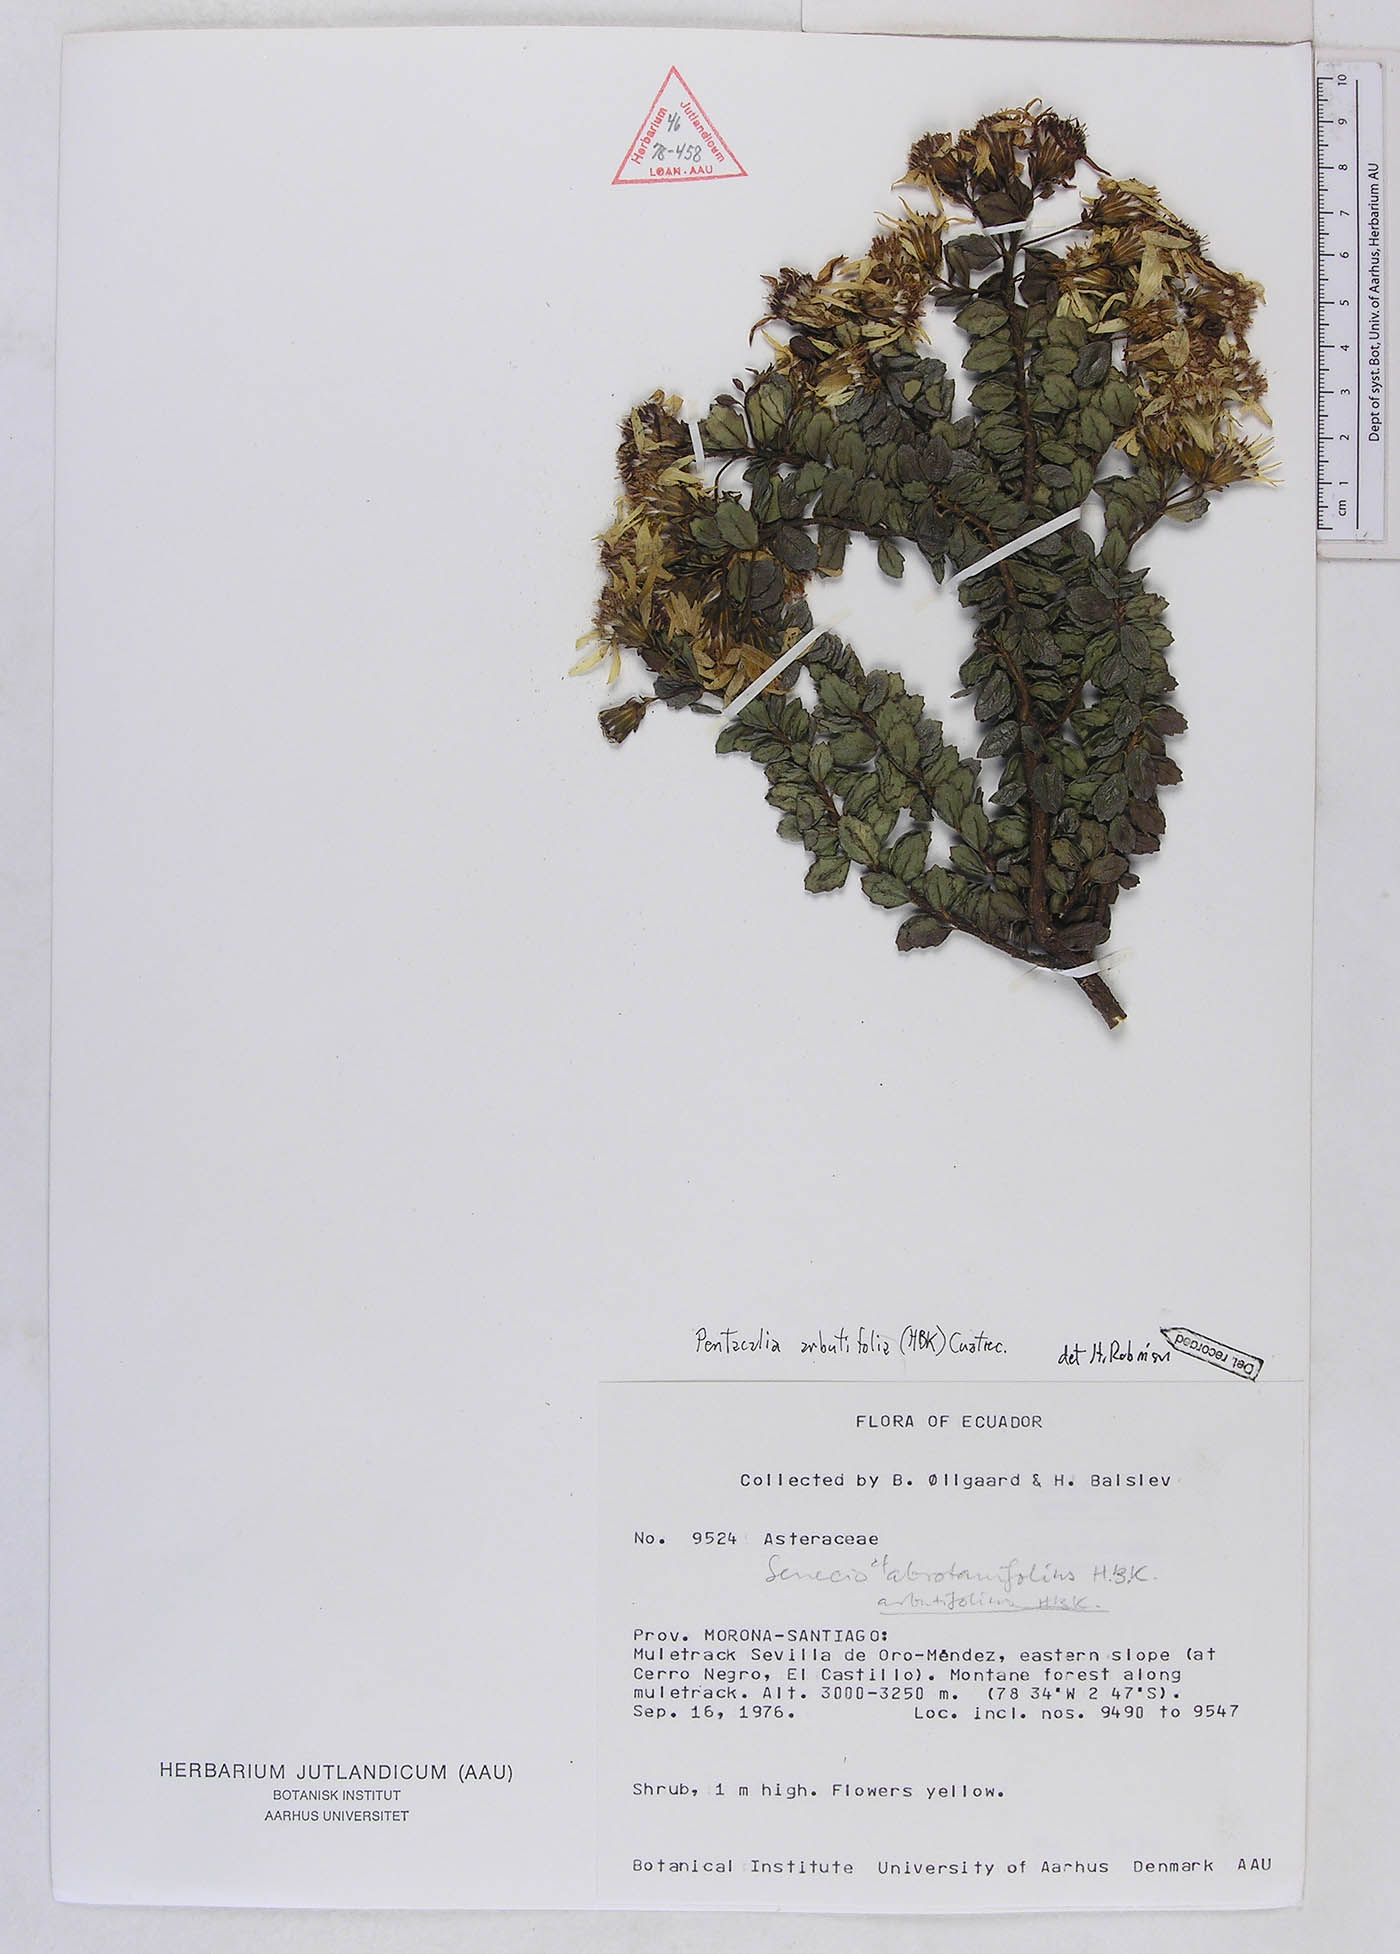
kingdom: Plantae
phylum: Tracheophyta
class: Magnoliopsida
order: Asterales
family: Asteraceae
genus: Monticalia
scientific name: Monticalia arbutifolia
